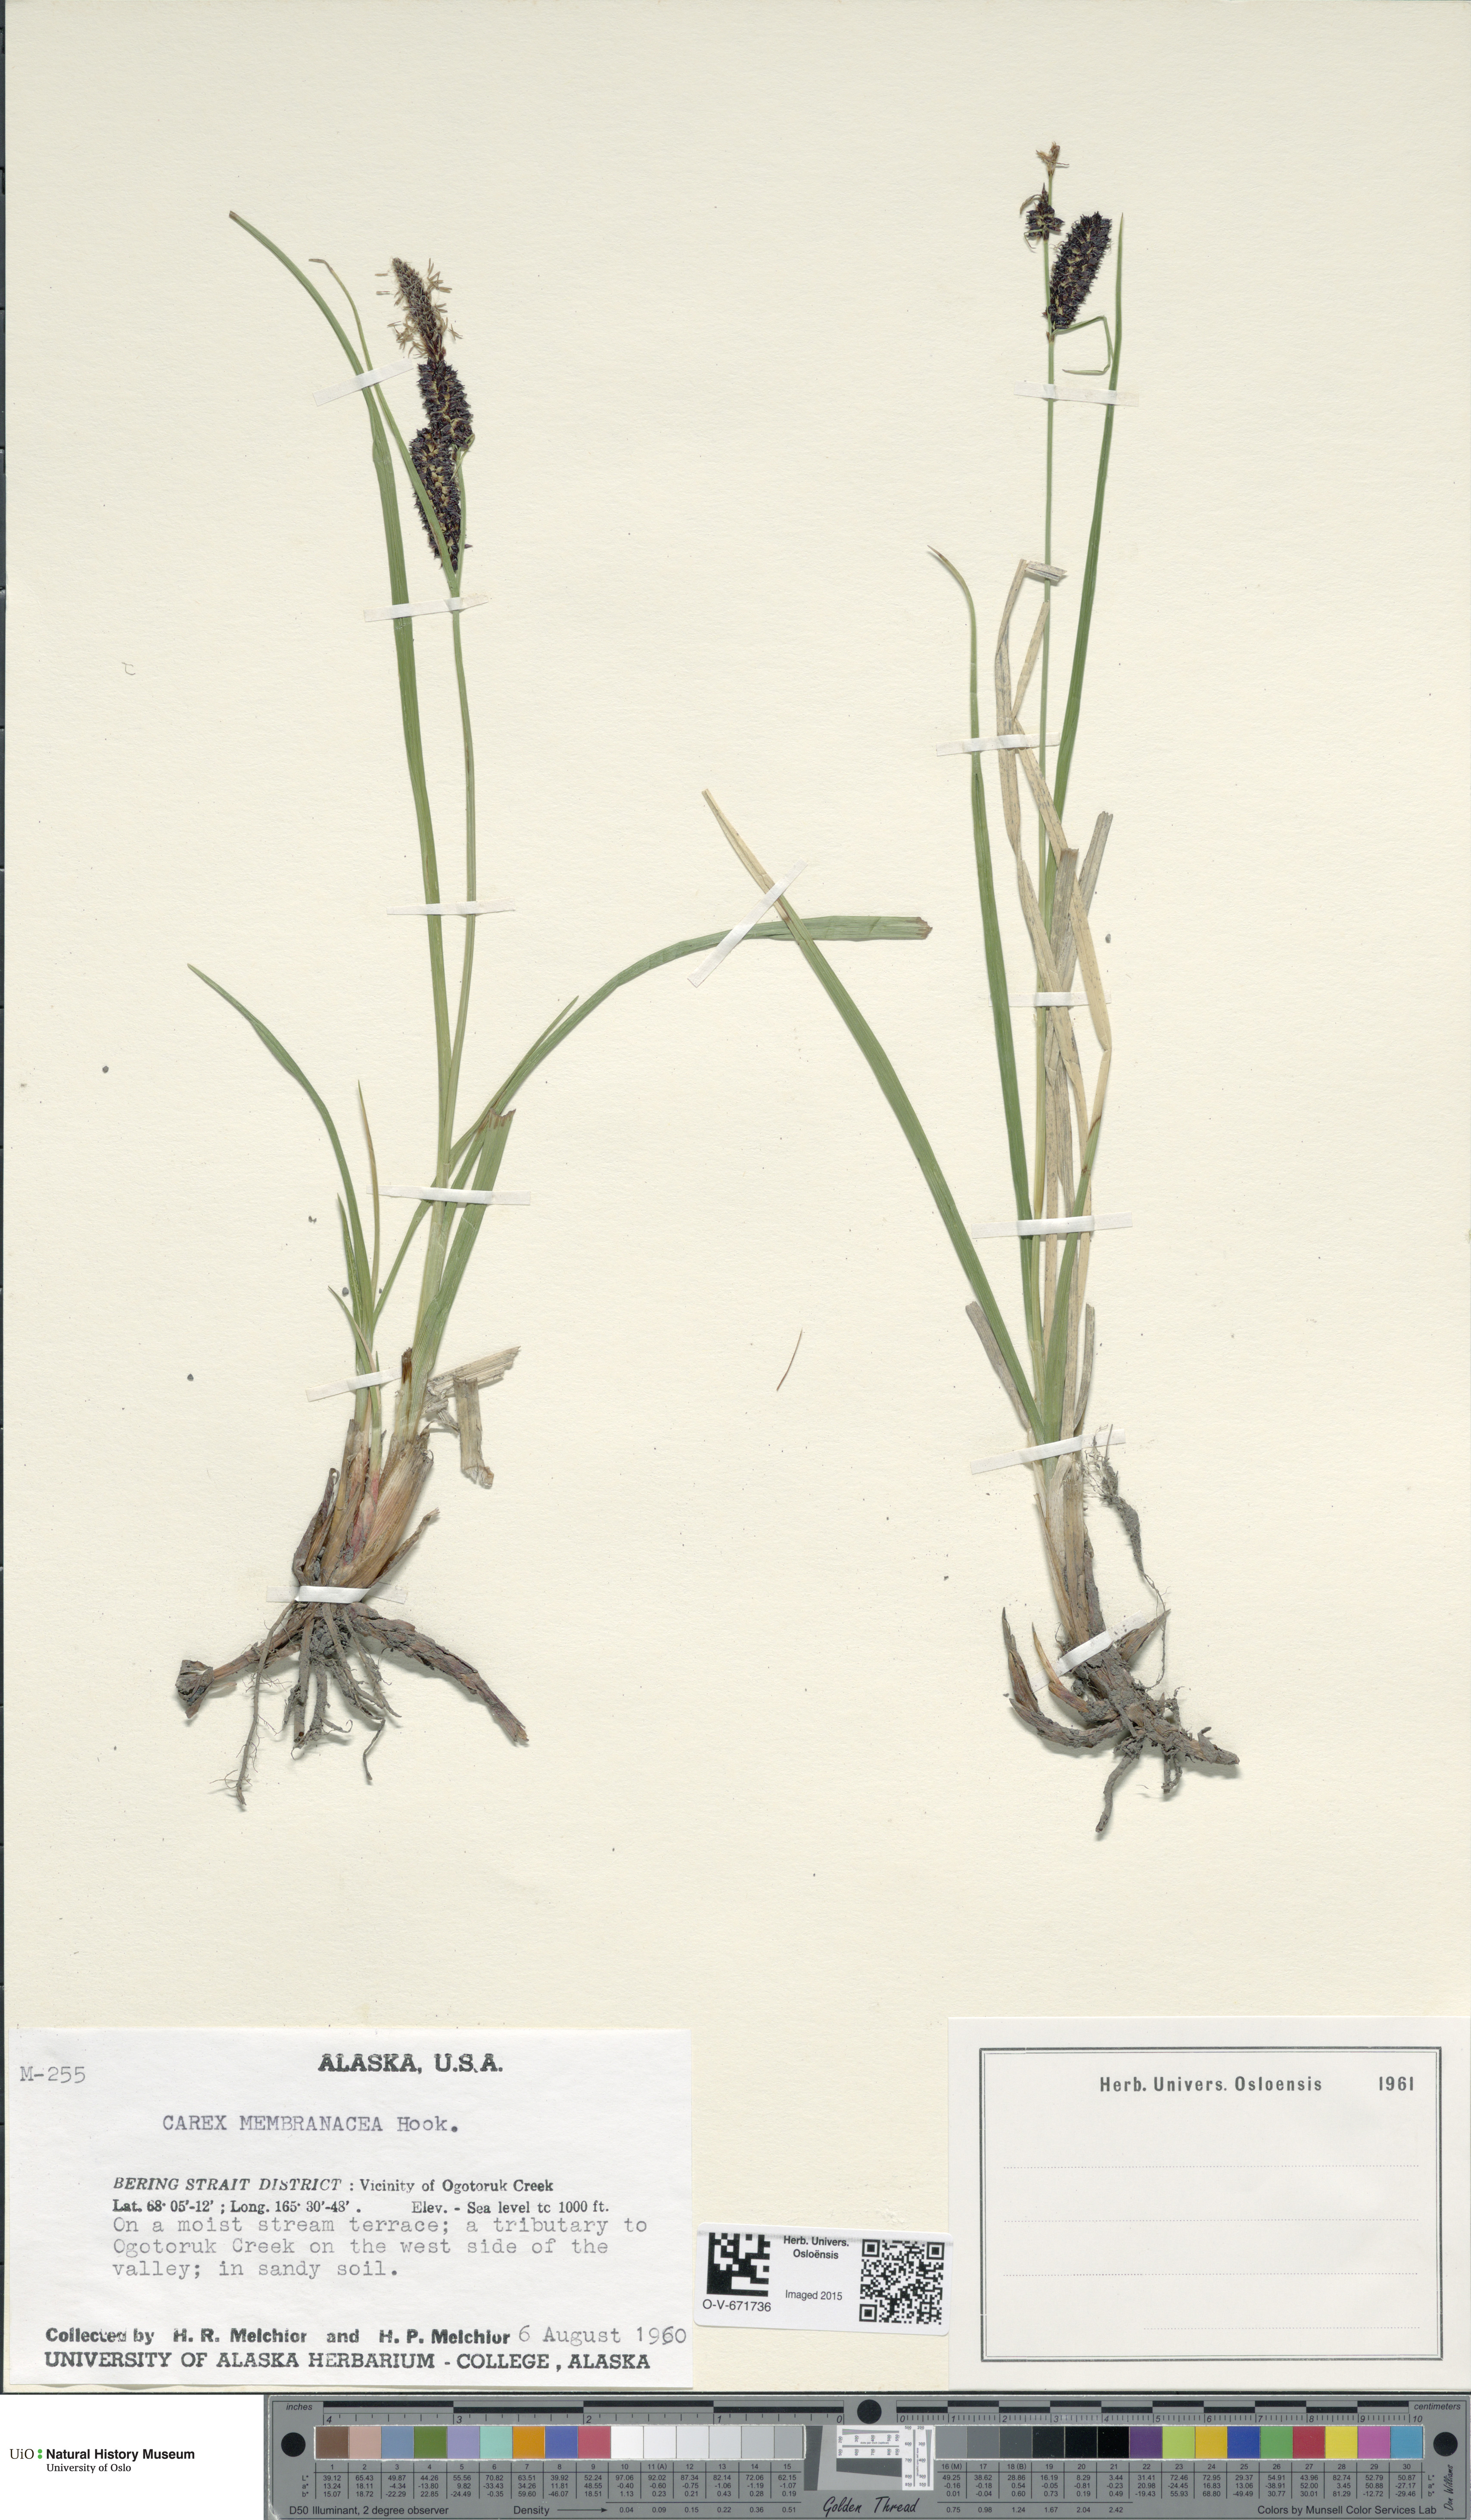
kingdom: Plantae
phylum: Tracheophyta
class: Liliopsida
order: Poales
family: Cyperaceae
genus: Carex
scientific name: Carex membranacea
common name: Fragile sedge
